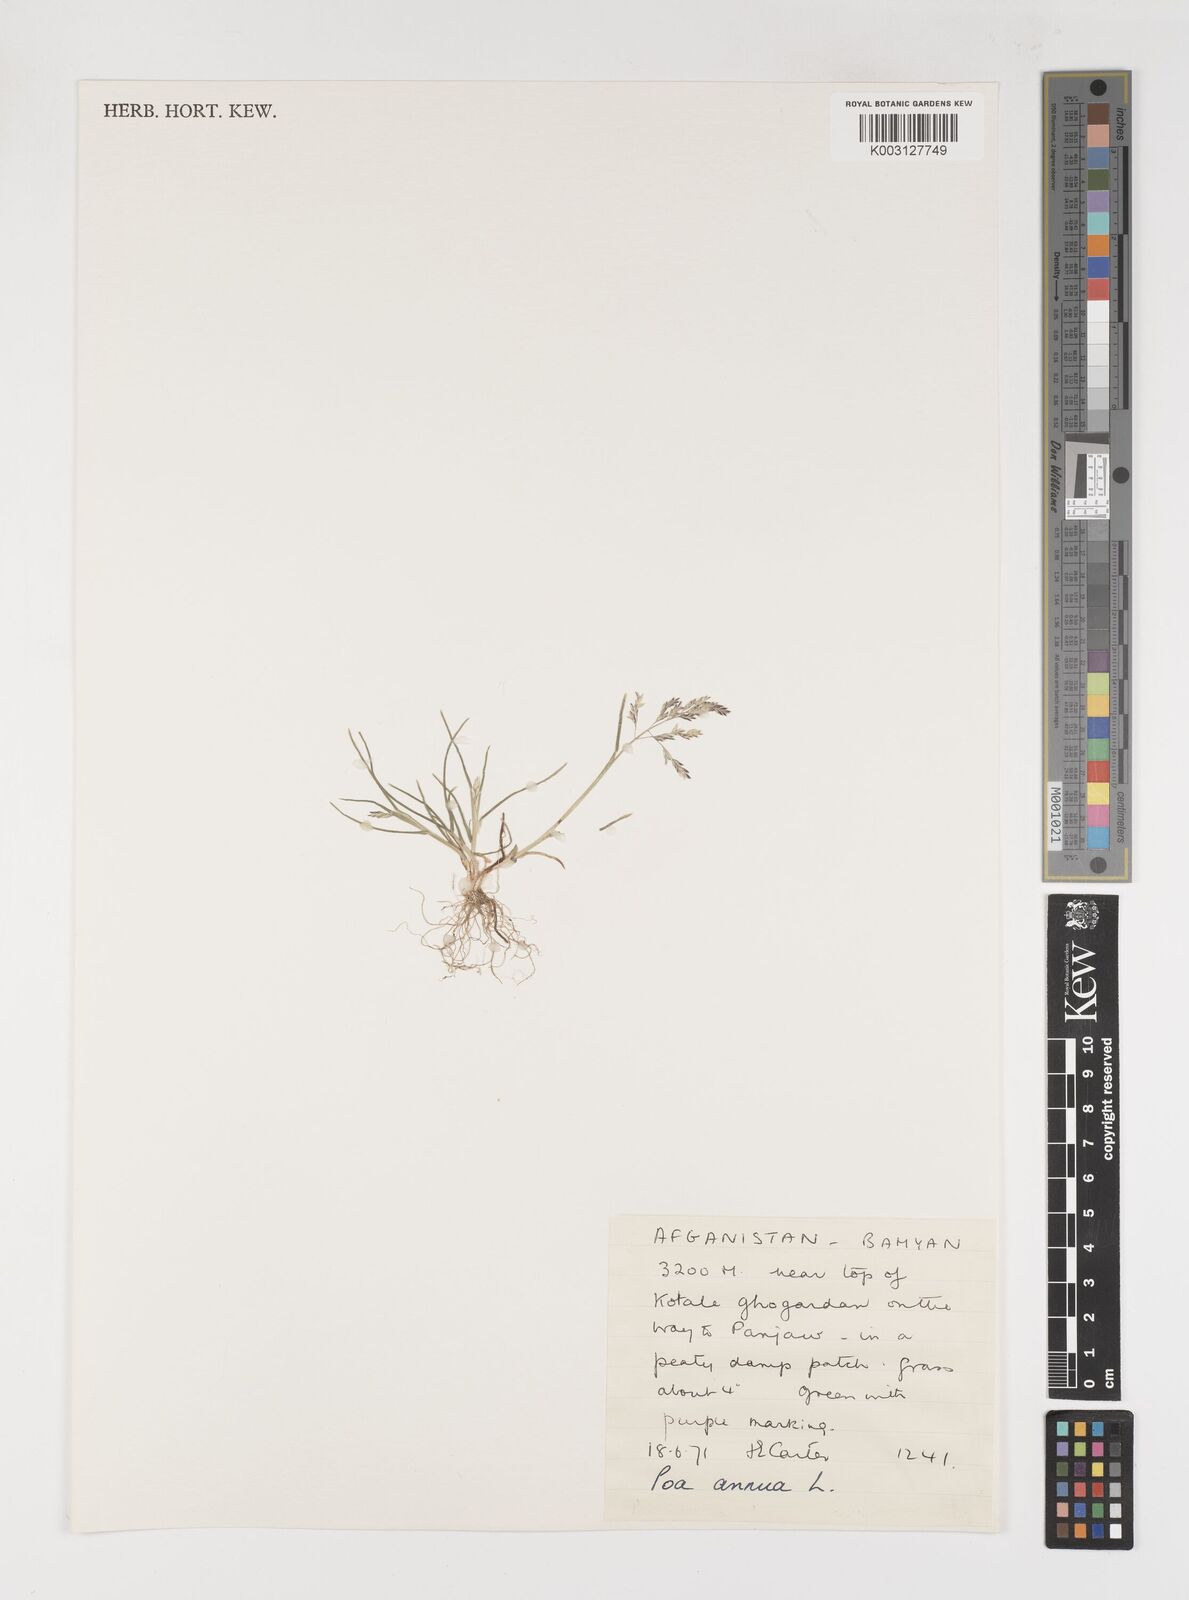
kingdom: Plantae
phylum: Tracheophyta
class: Liliopsida
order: Poales
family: Poaceae
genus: Poa
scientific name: Poa annua
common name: Annual bluegrass
